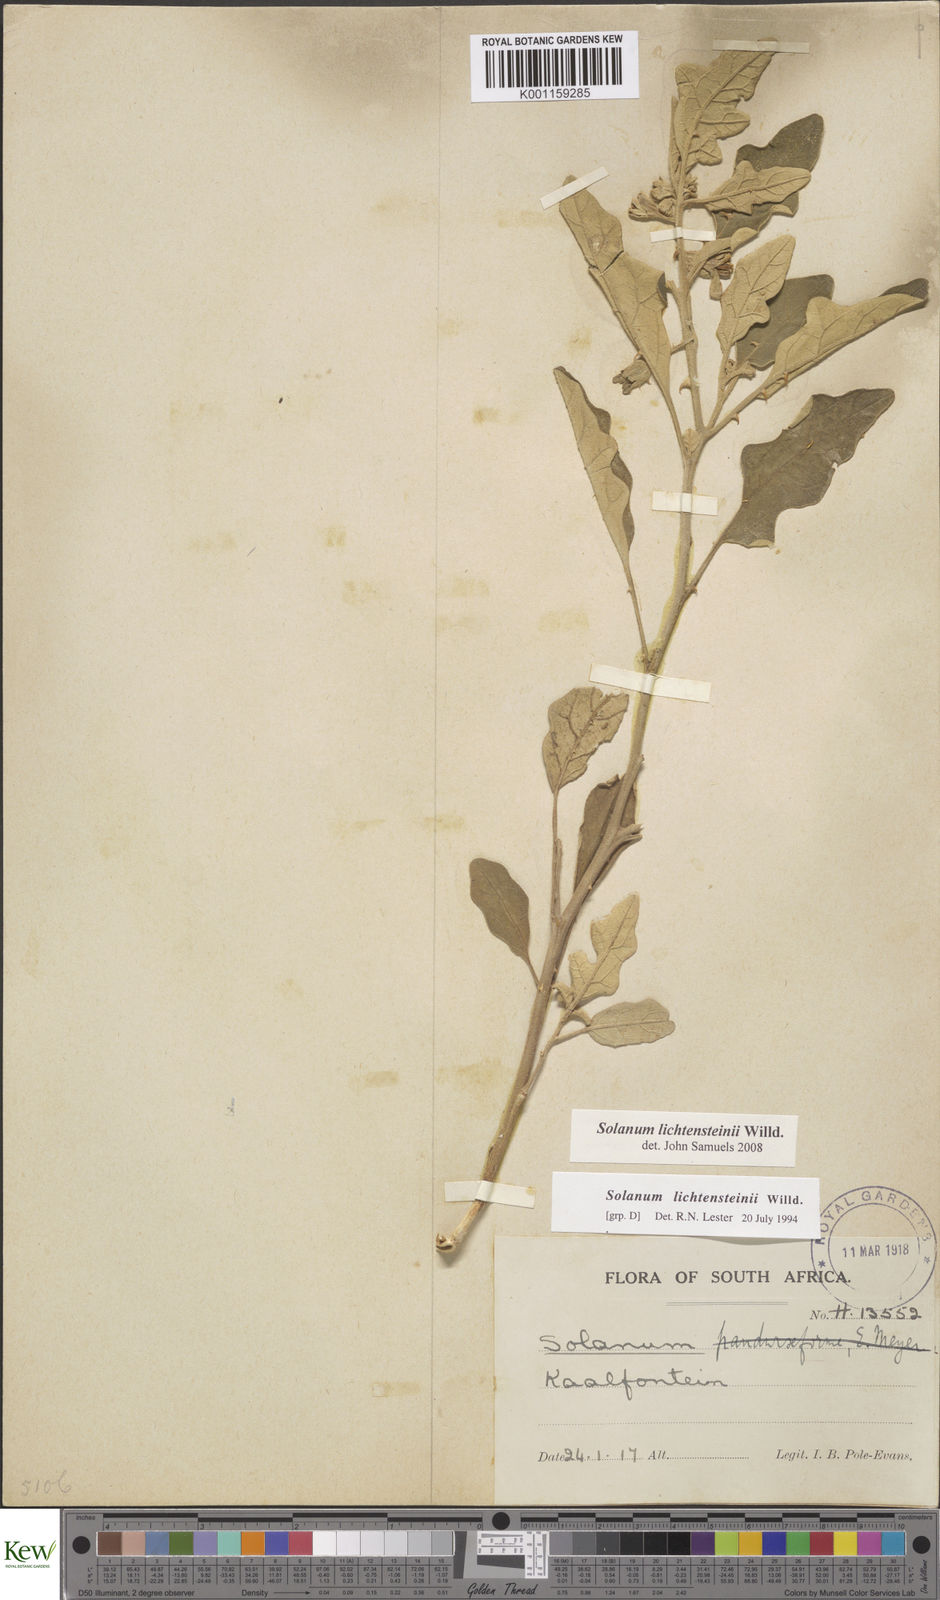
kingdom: Plantae
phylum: Tracheophyta
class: Magnoliopsida
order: Solanales
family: Solanaceae
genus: Solanum
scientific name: Solanum lichtensteinii
